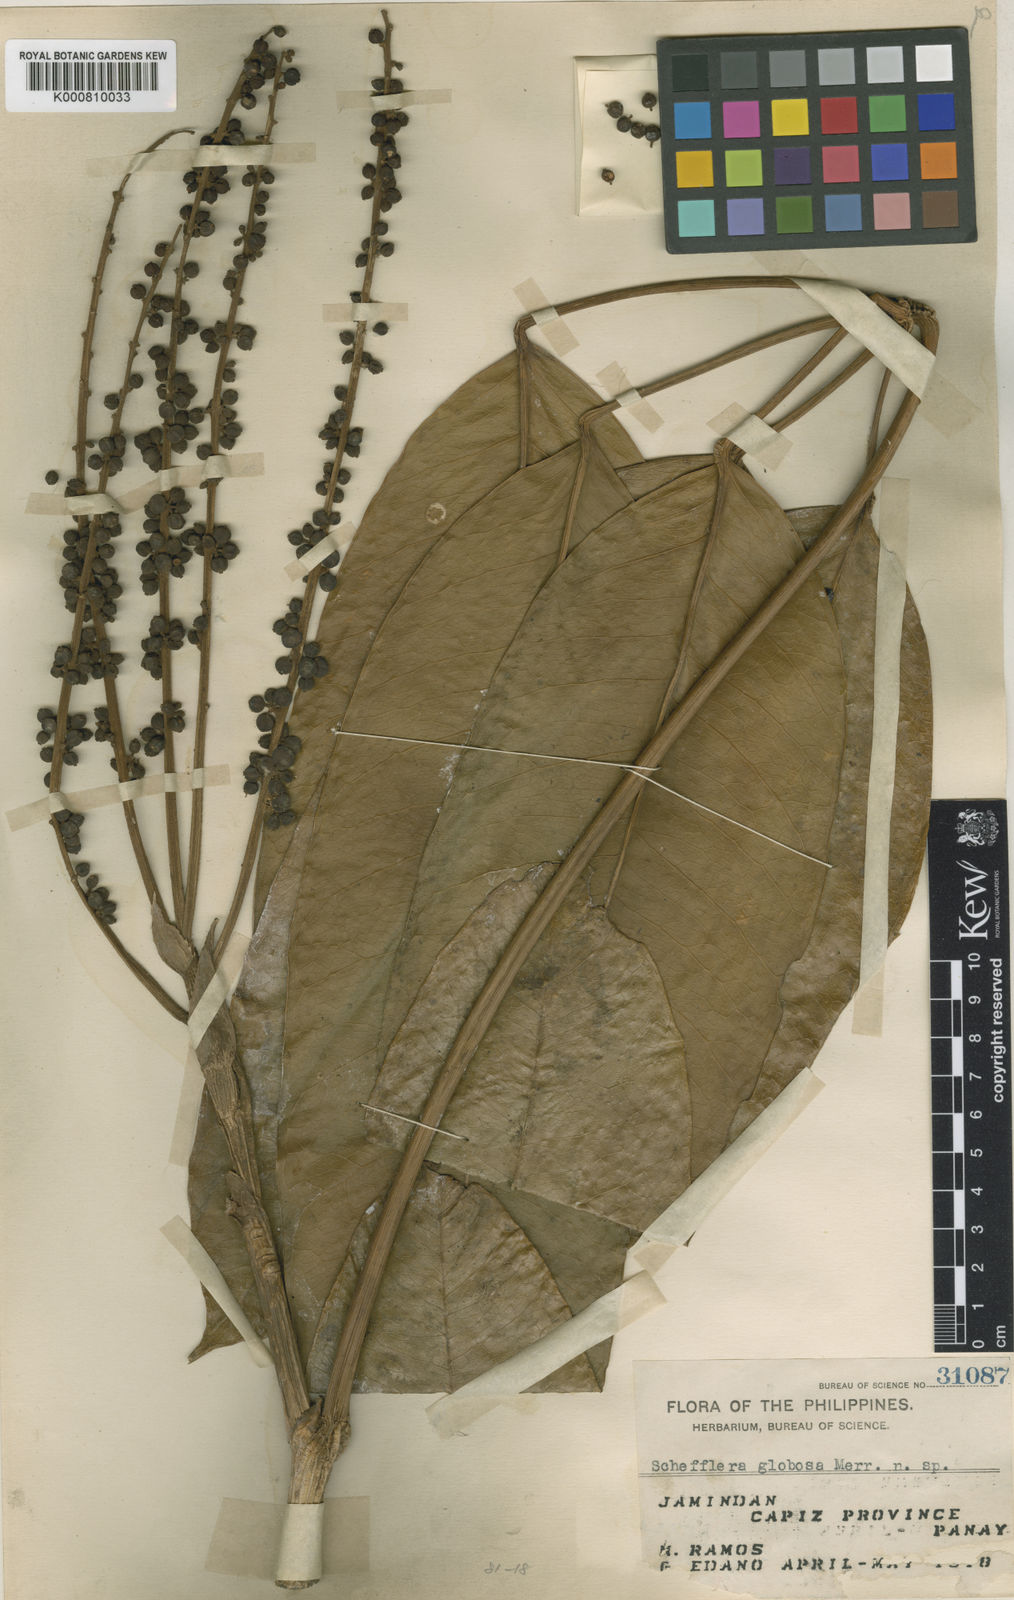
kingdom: Plantae
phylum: Tracheophyta
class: Magnoliopsida
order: Apiales
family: Araliaceae
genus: Heptapleurum
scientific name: Heptapleurum globosum
